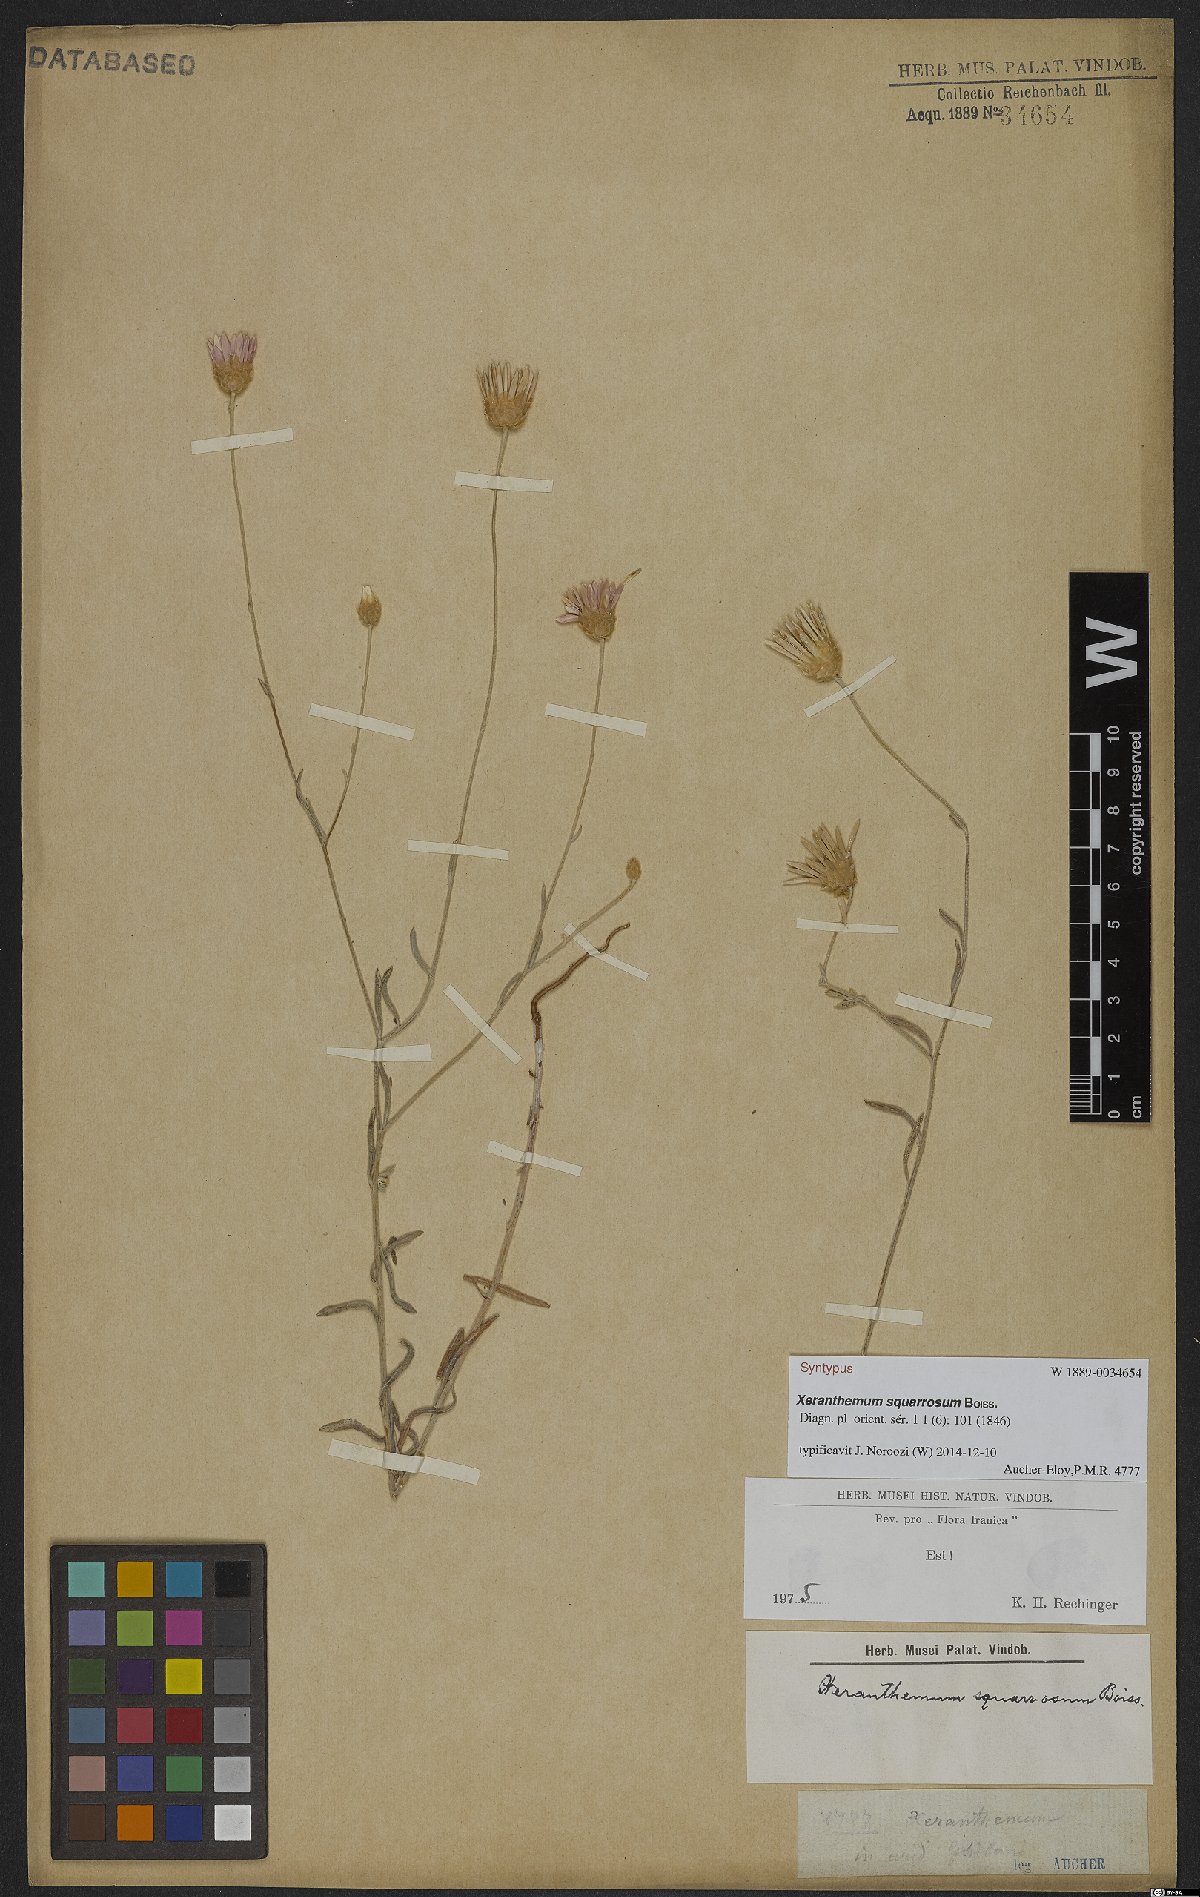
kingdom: Plantae
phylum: Tracheophyta
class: Magnoliopsida
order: Asterales
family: Asteraceae
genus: Xeranthemum
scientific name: Xeranthemum squarrosum
